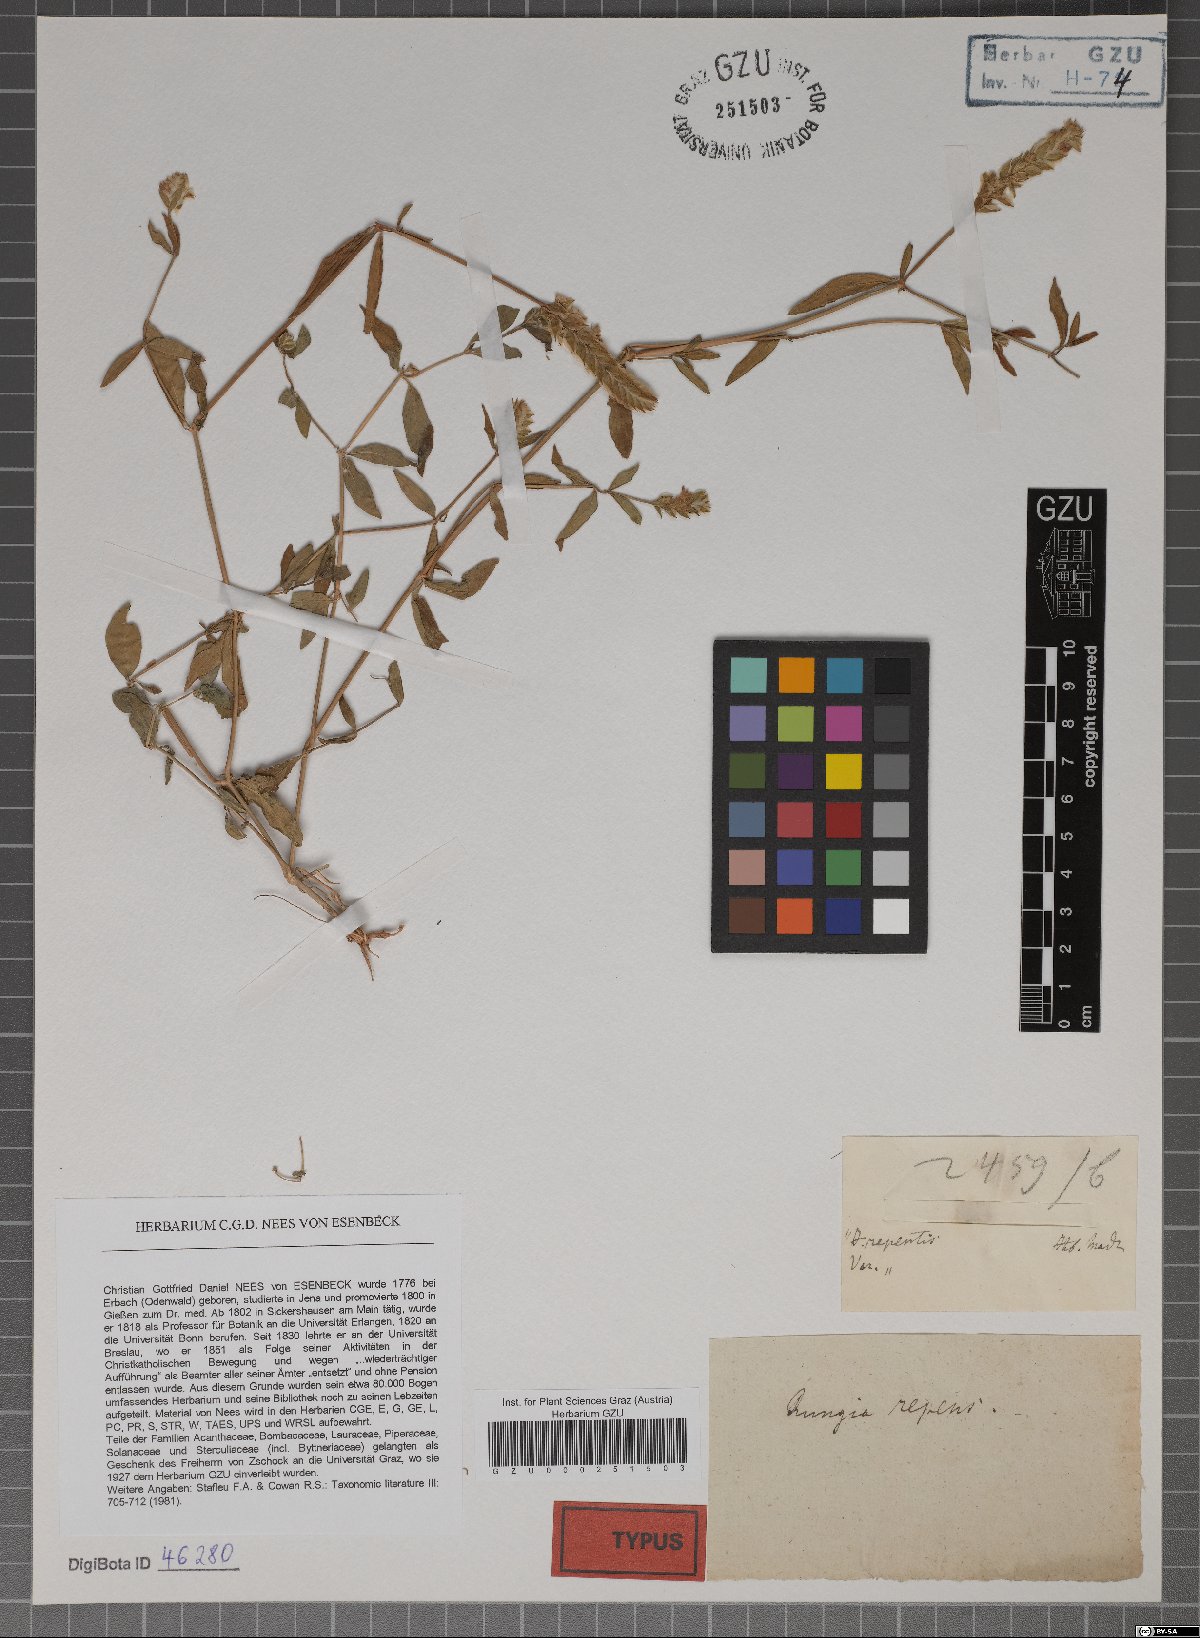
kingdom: Plantae
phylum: Tracheophyta
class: Magnoliopsida
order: Lamiales
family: Acanthaceae
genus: Rungia
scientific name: Rungia repens
